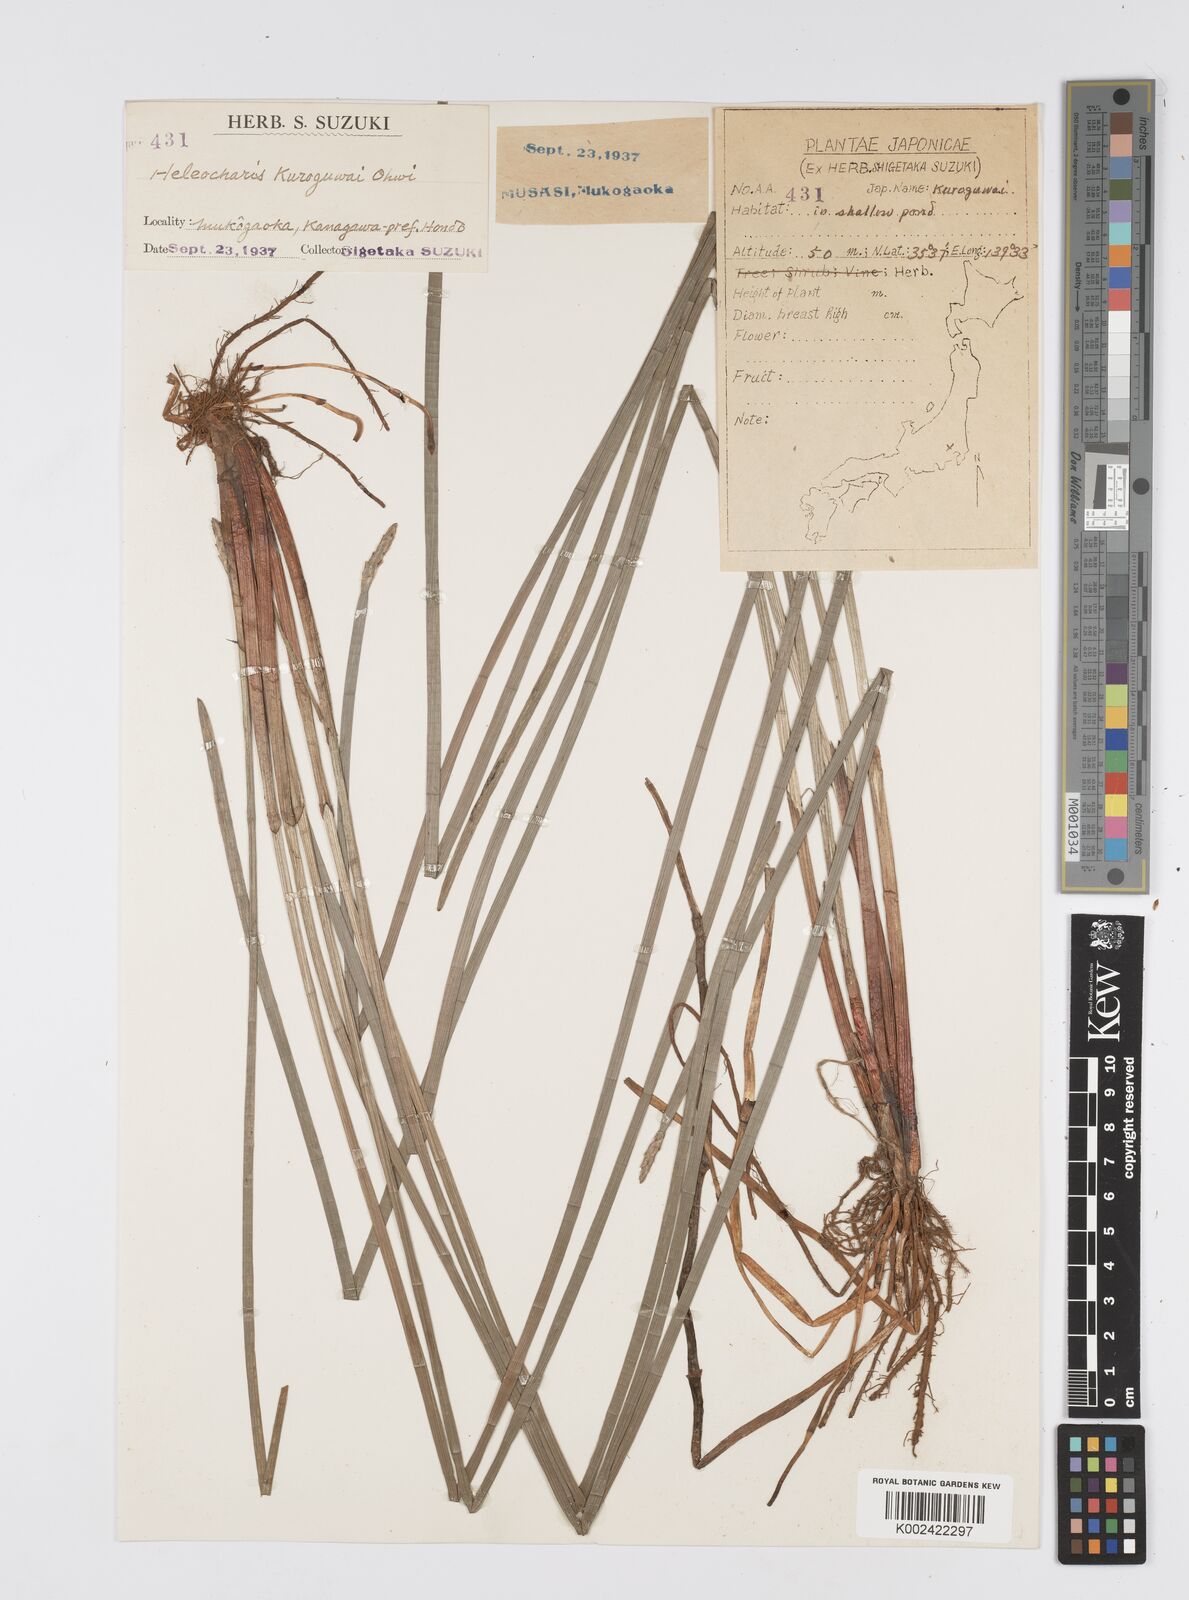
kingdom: Plantae
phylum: Tracheophyta
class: Liliopsida
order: Poales
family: Cyperaceae
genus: Eleocharis
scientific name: Eleocharis kuroguwai
